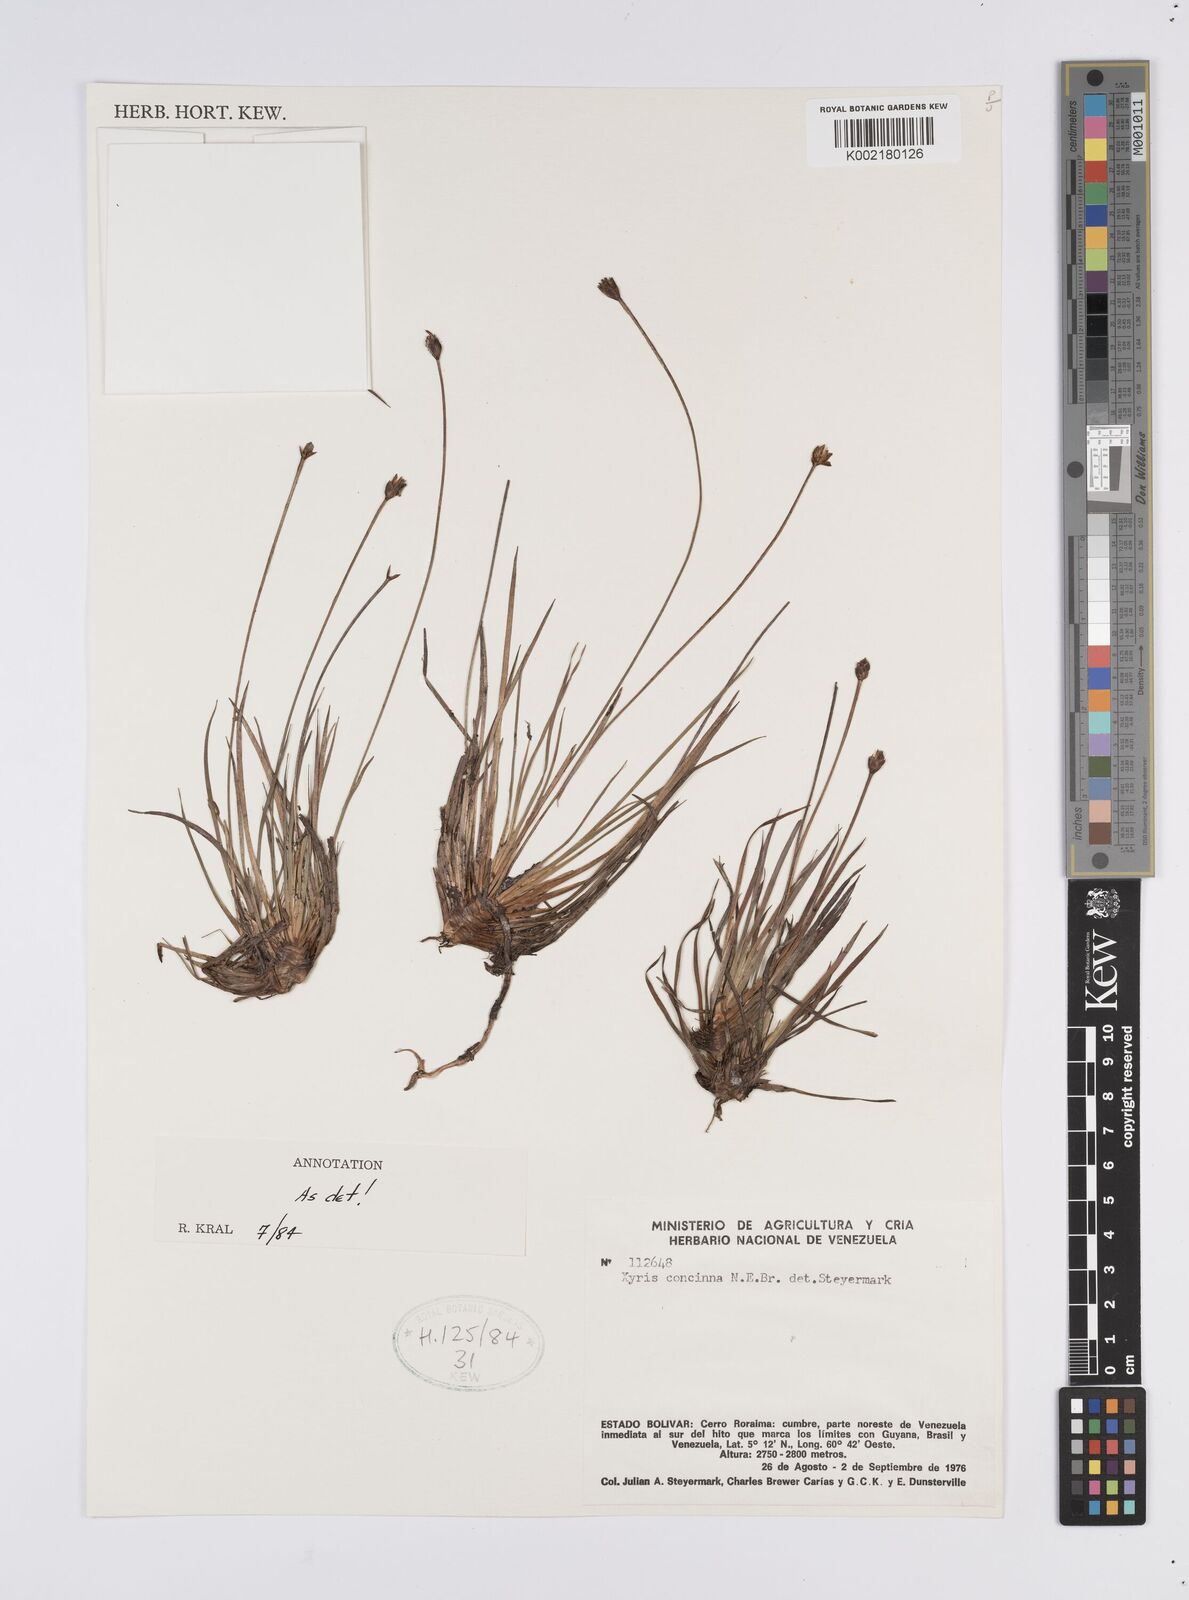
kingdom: Plantae
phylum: Tracheophyta
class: Liliopsida
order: Poales
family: Xyridaceae
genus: Xyris
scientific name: Xyris concinna
